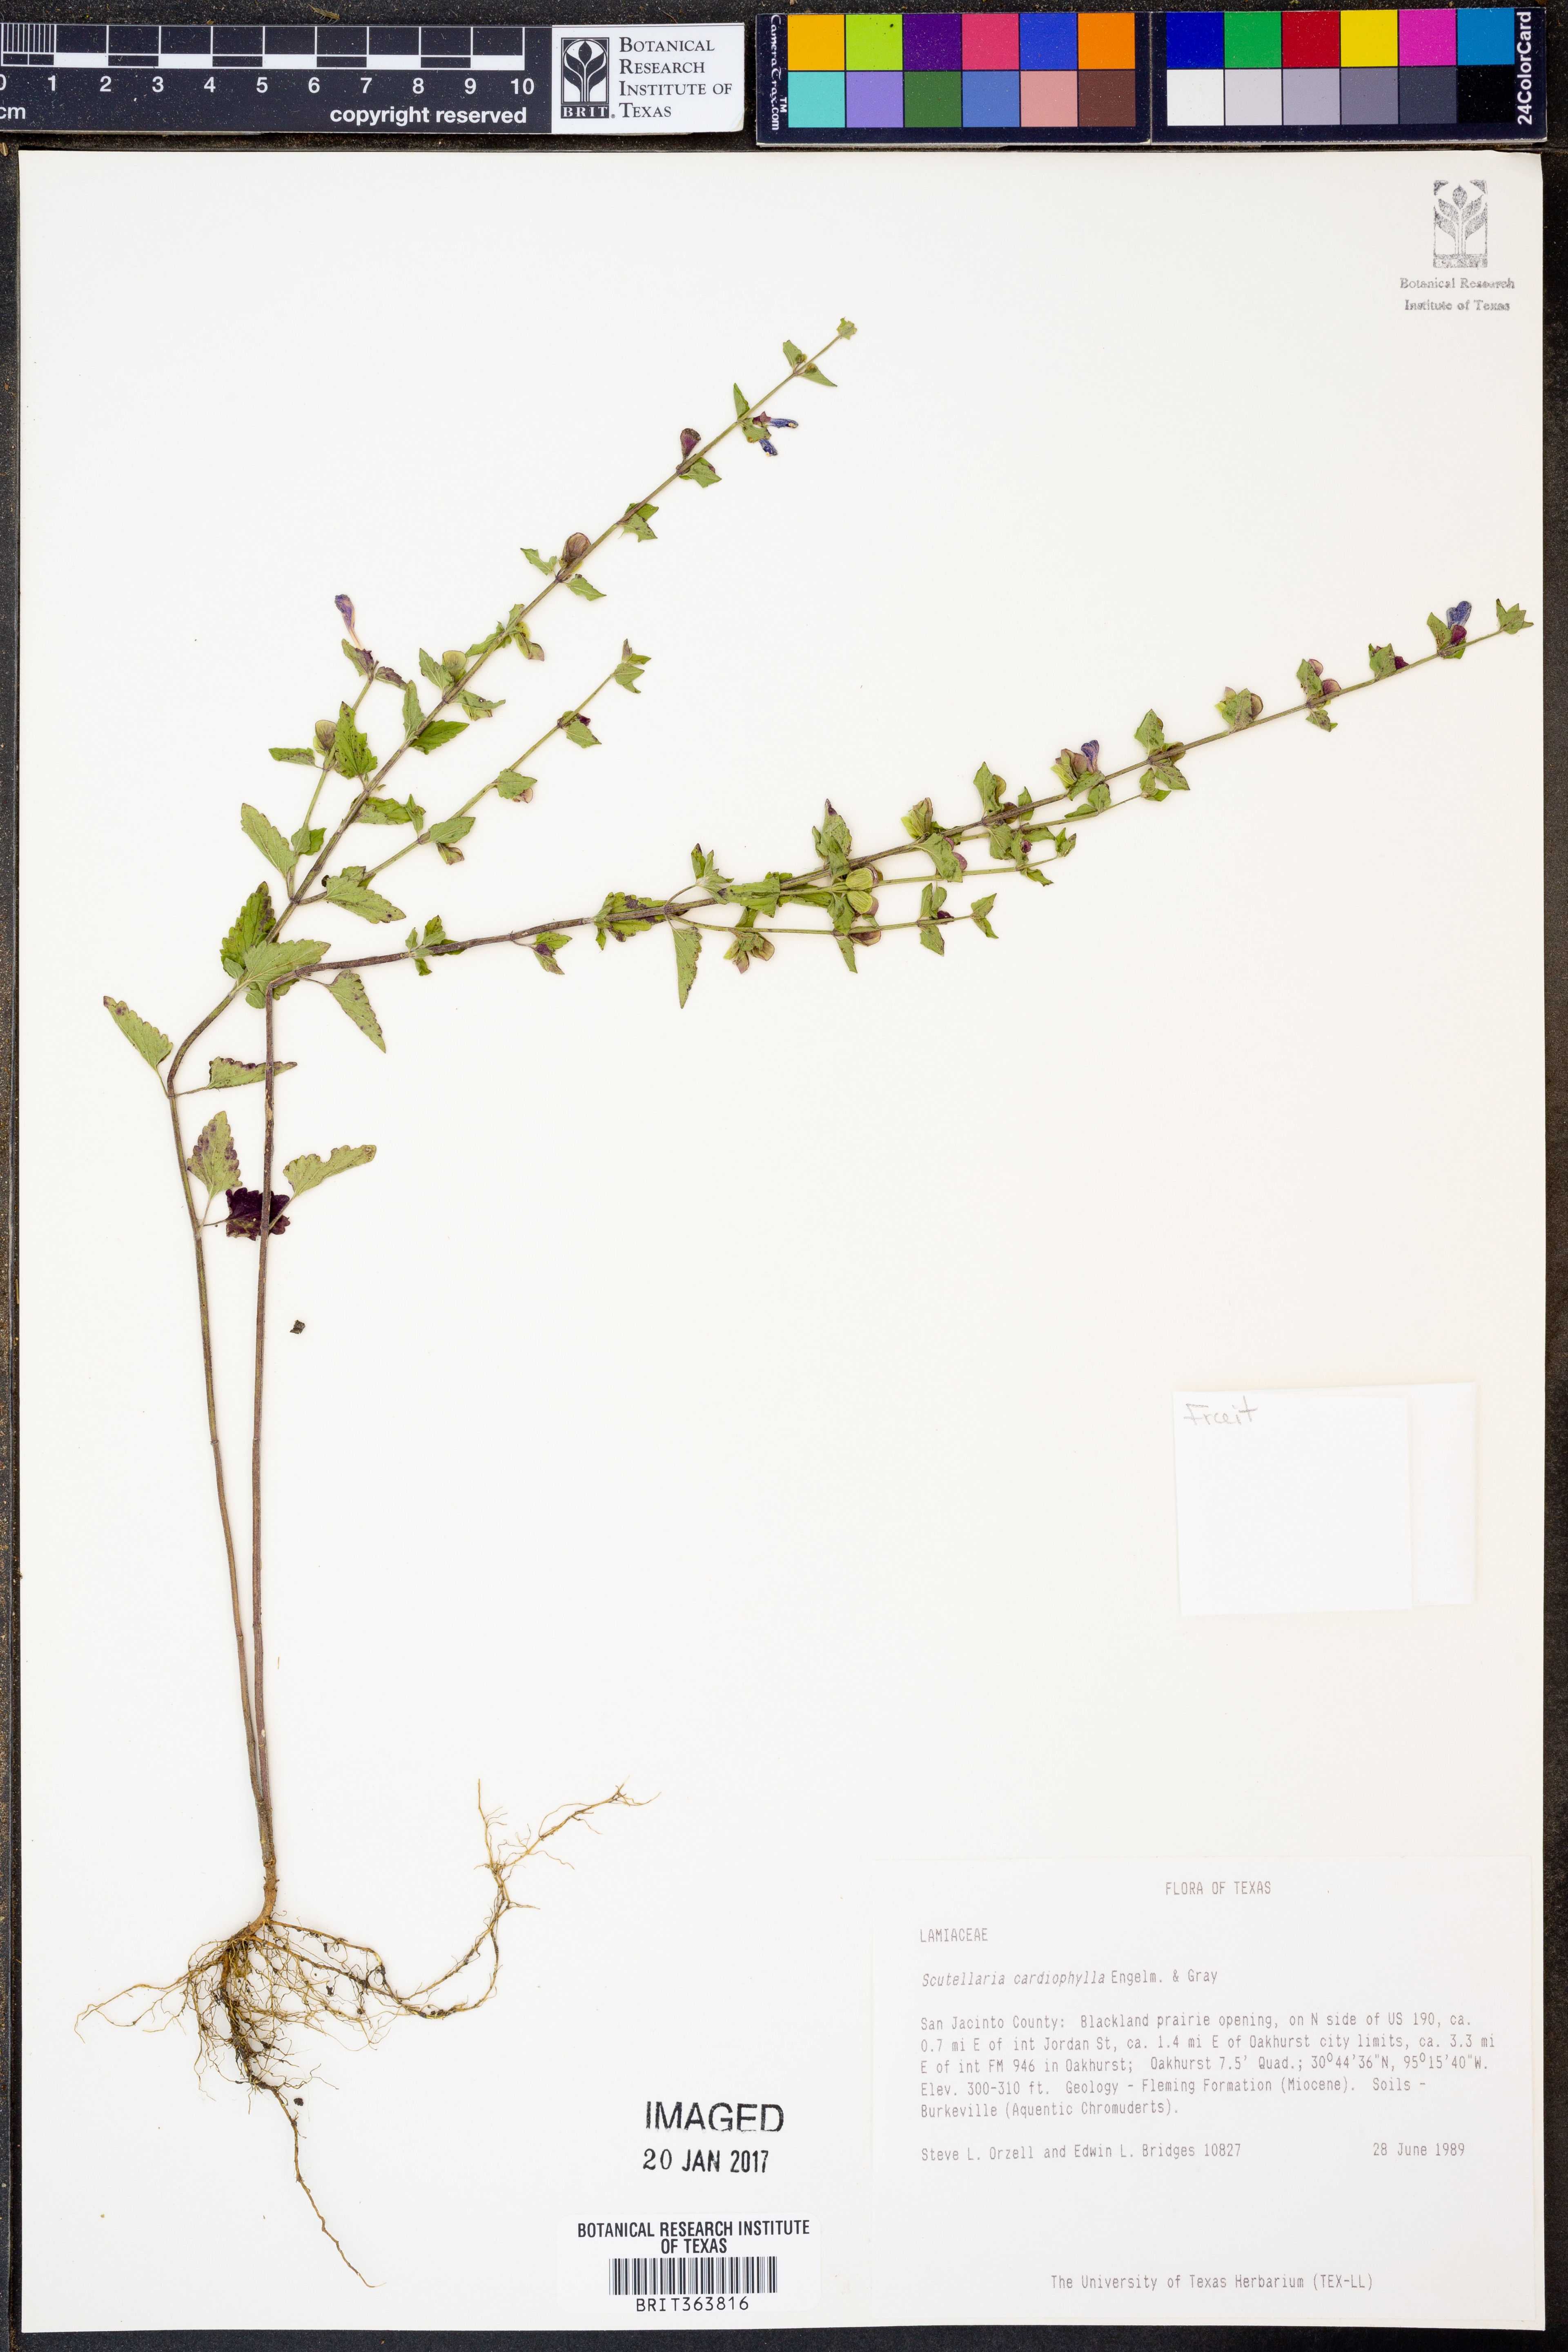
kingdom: Plantae
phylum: Tracheophyta
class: Magnoliopsida
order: Lamiales
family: Lamiaceae
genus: Scutellaria
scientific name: Scutellaria cardiophylla
